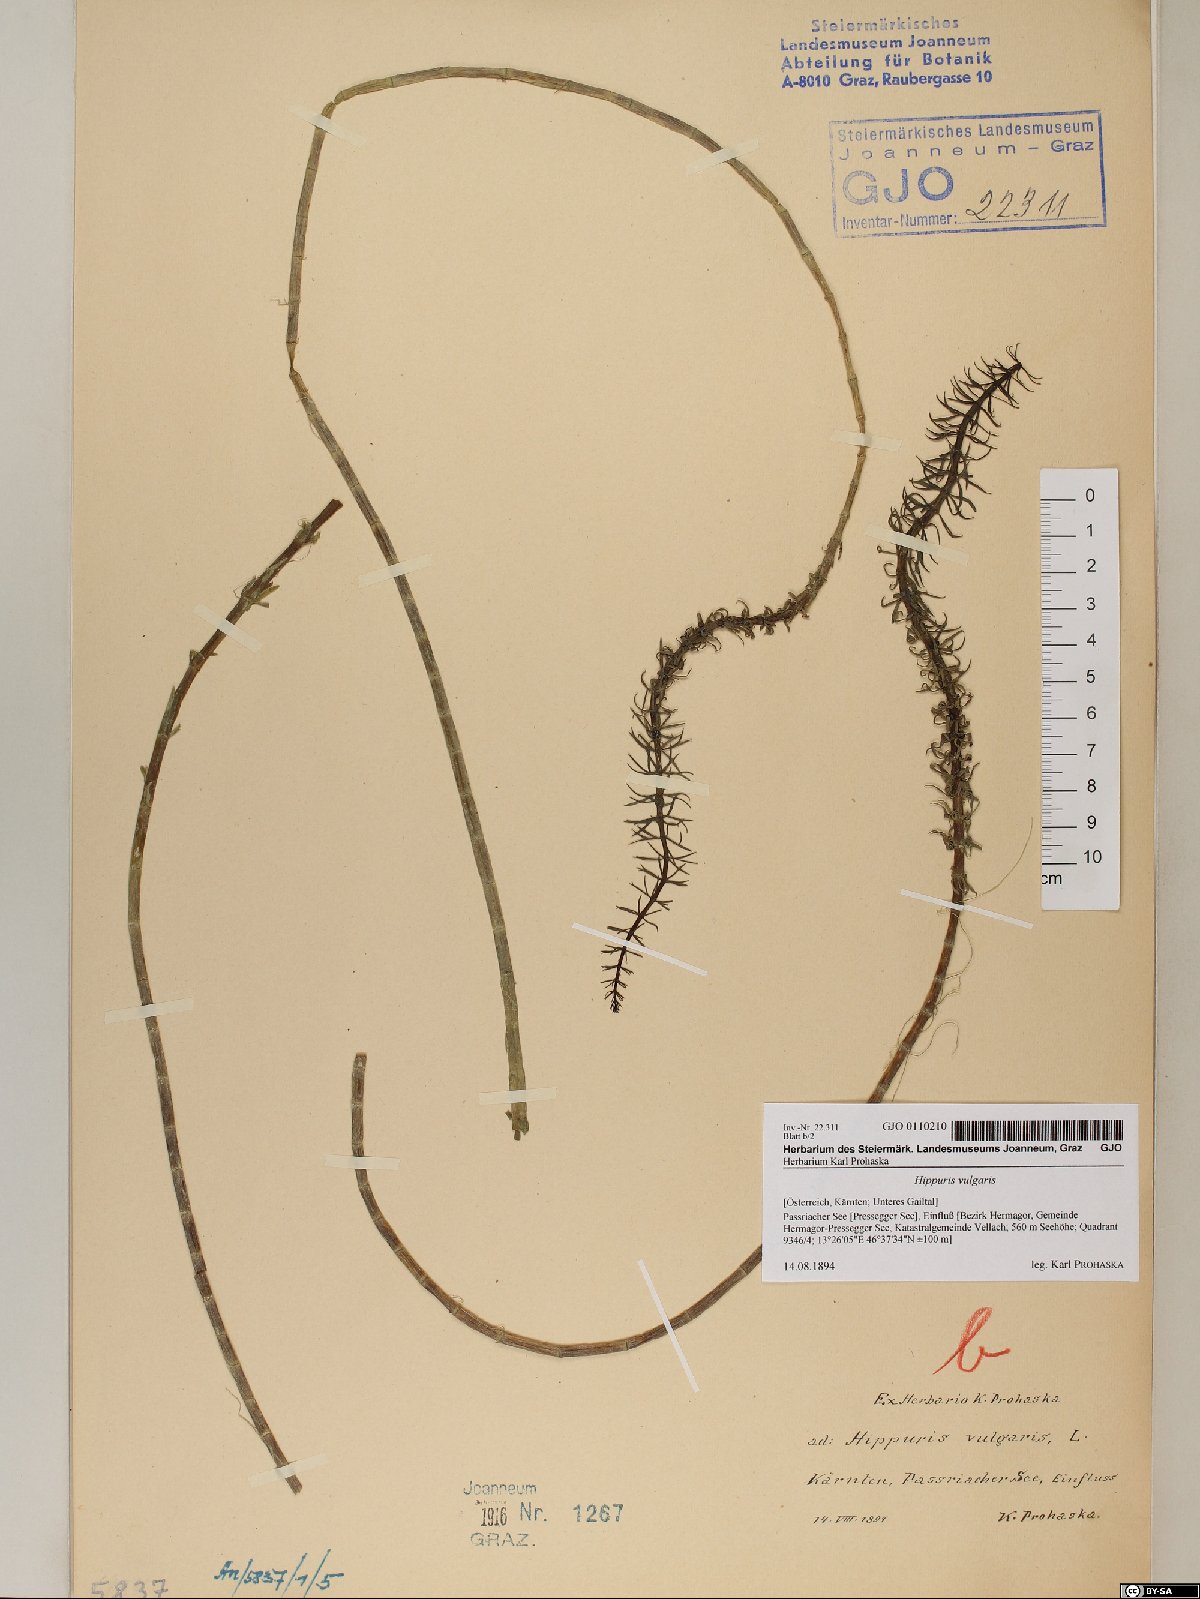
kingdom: Plantae
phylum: Tracheophyta
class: Magnoliopsida
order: Lamiales
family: Plantaginaceae
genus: Hippuris
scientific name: Hippuris vulgaris
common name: Mare's-tail
